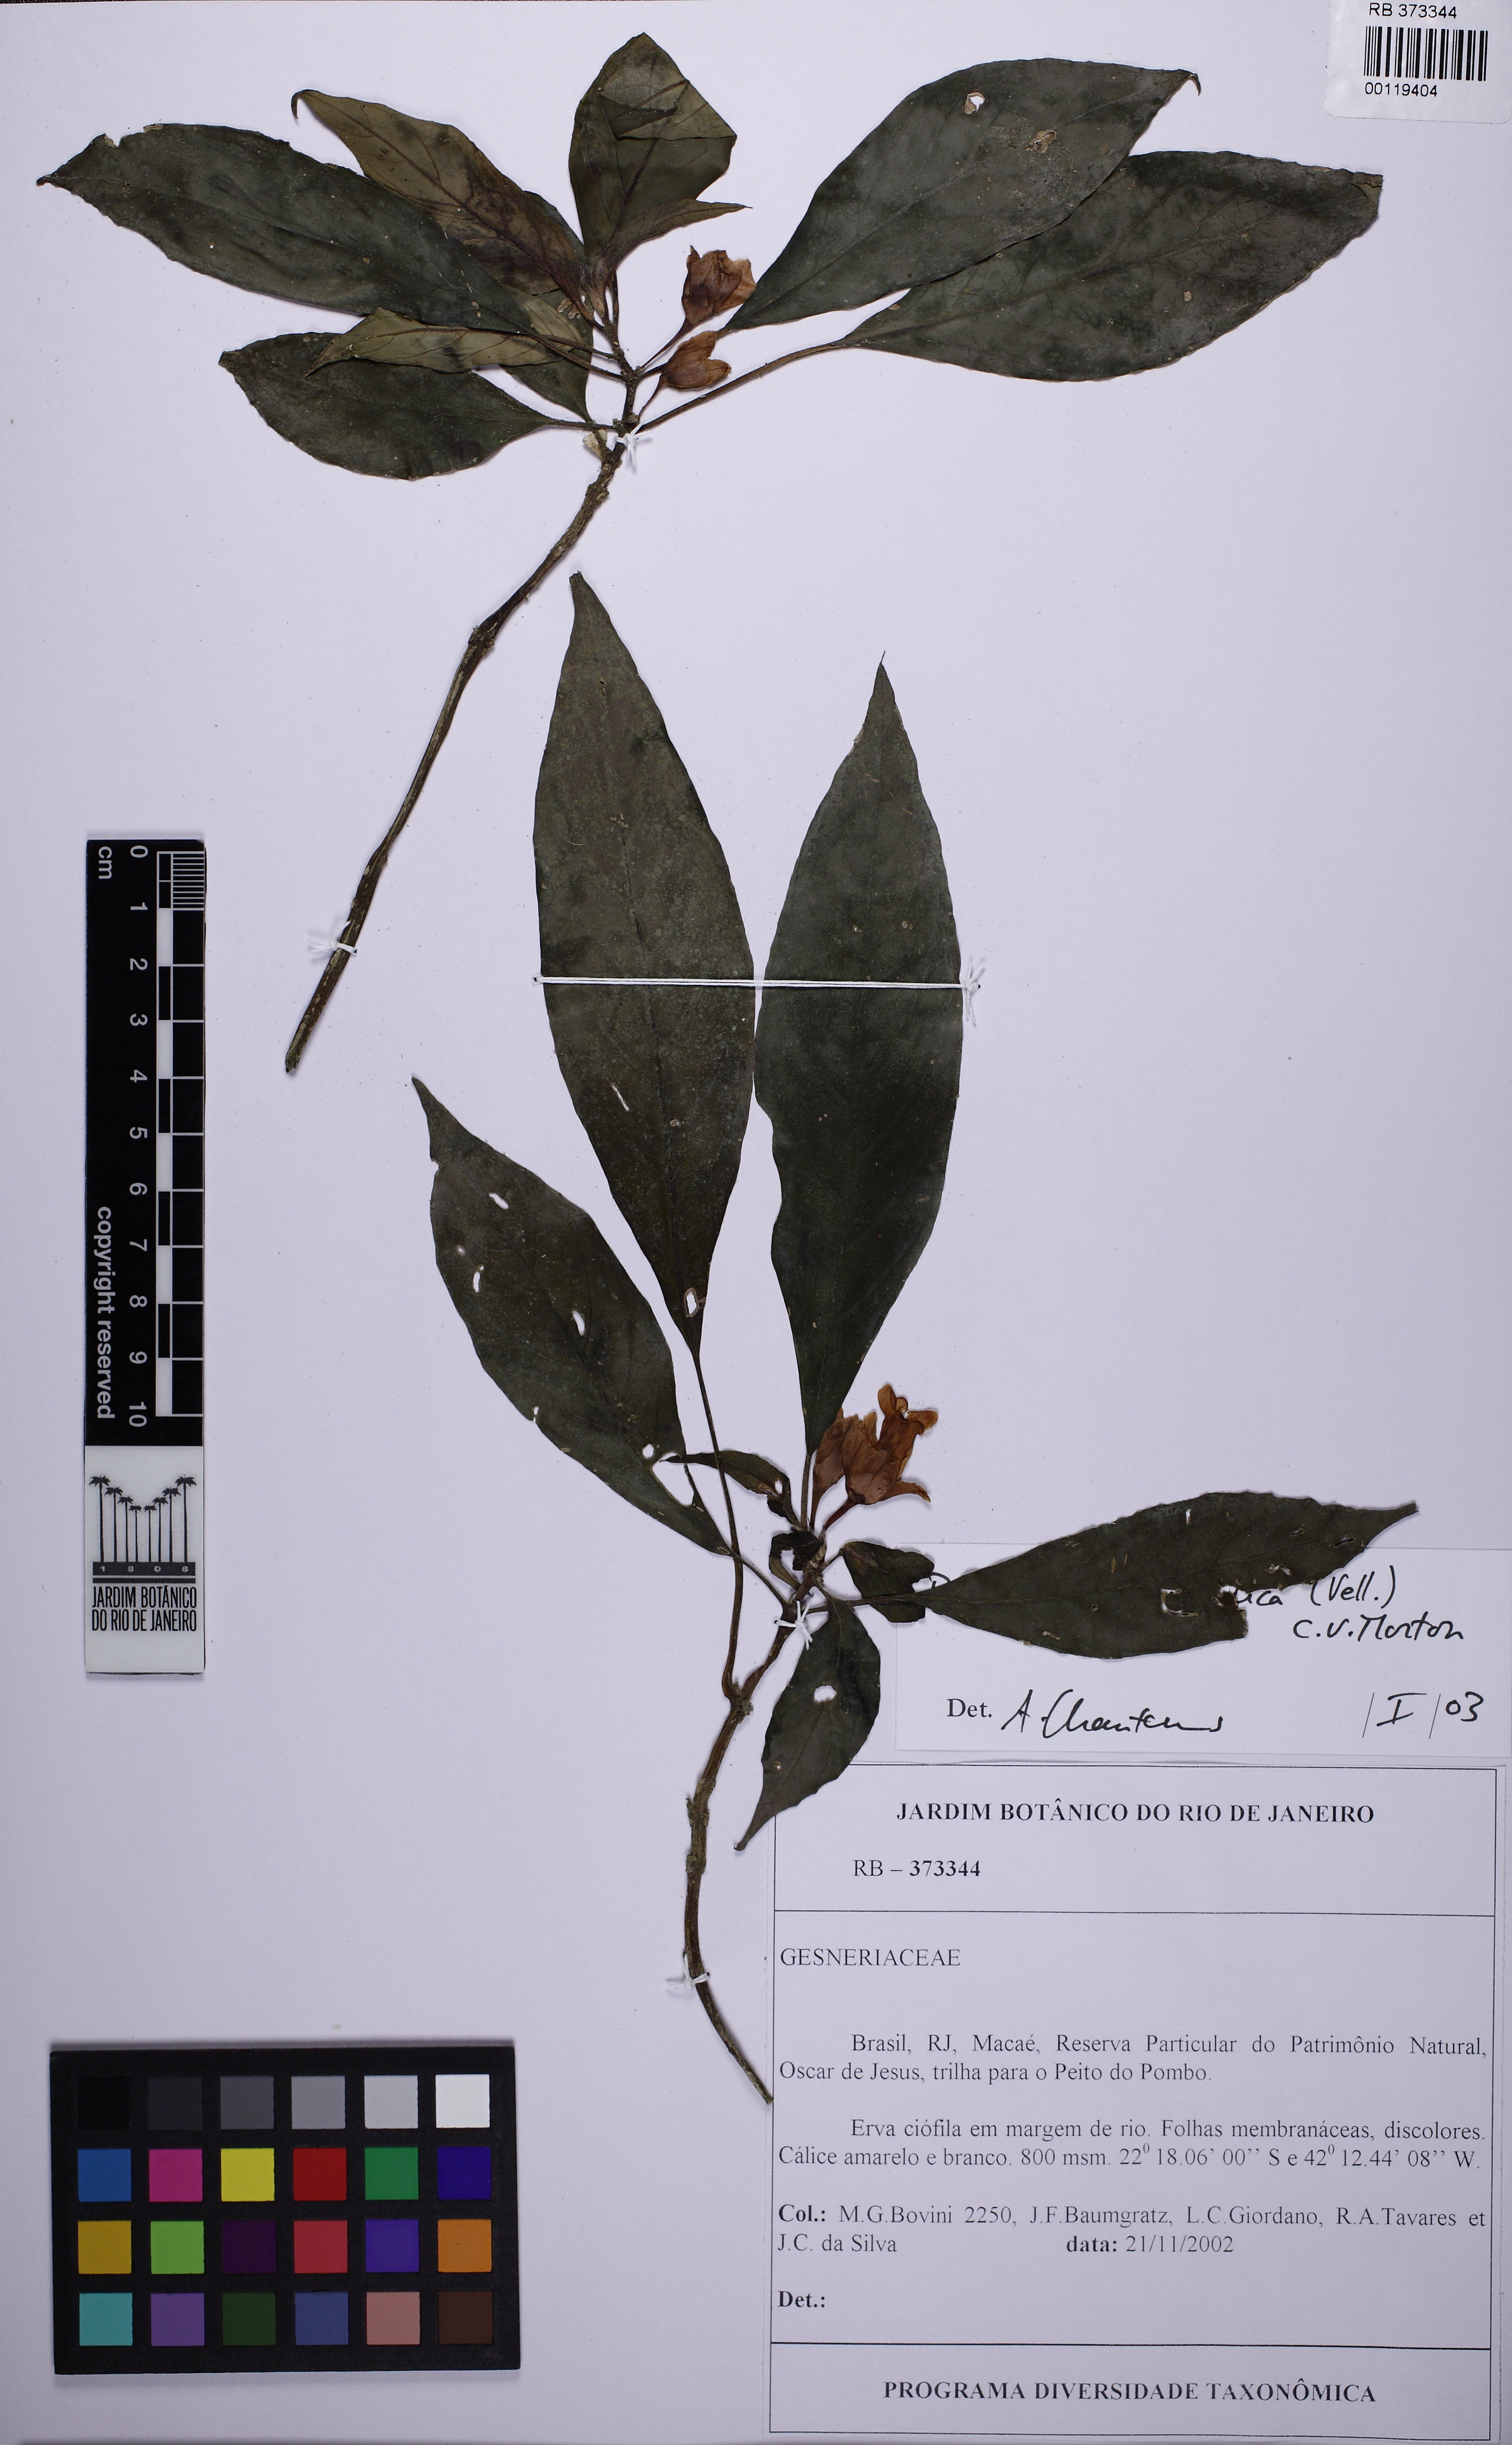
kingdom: Plantae
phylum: Tracheophyta
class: Magnoliopsida
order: Lamiales
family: Gesneriaceae
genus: Besleria
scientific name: Besleria melancholica
